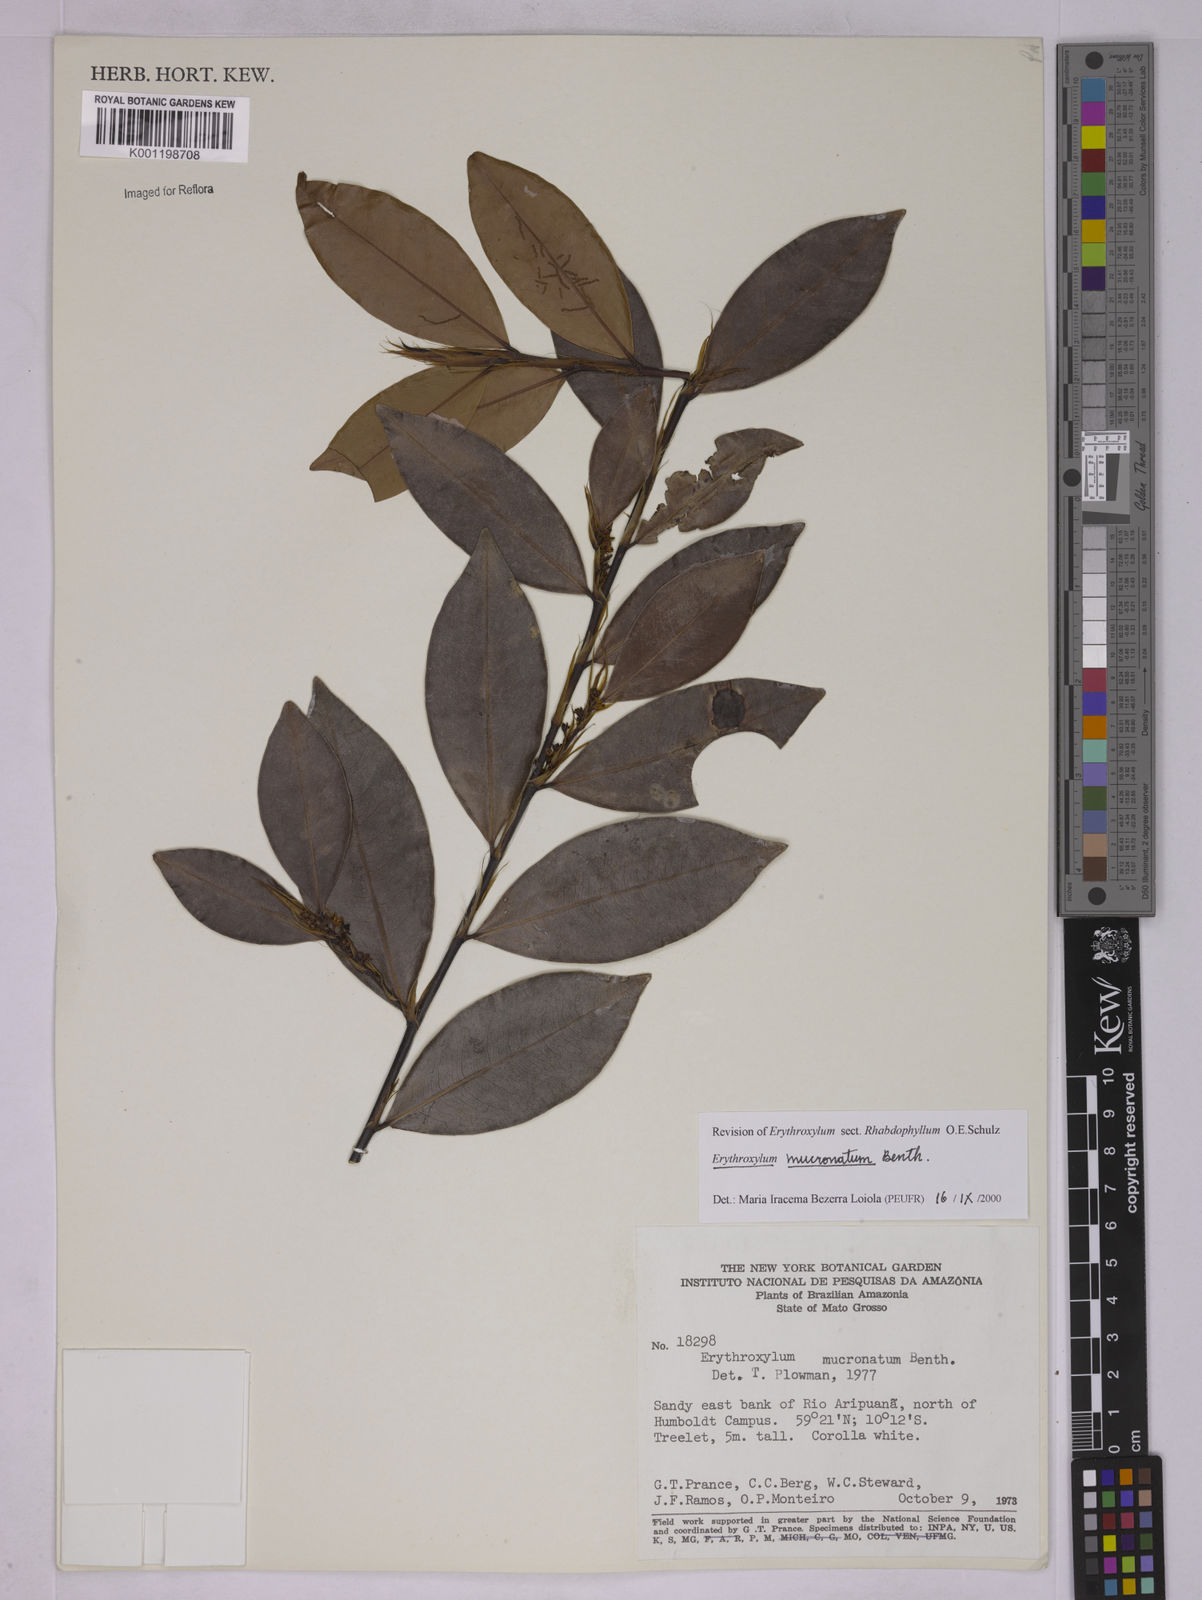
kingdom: Plantae
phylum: Tracheophyta
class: Magnoliopsida
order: Malpighiales
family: Erythroxylaceae
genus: Erythroxylum
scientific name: Erythroxylum mucronatum
